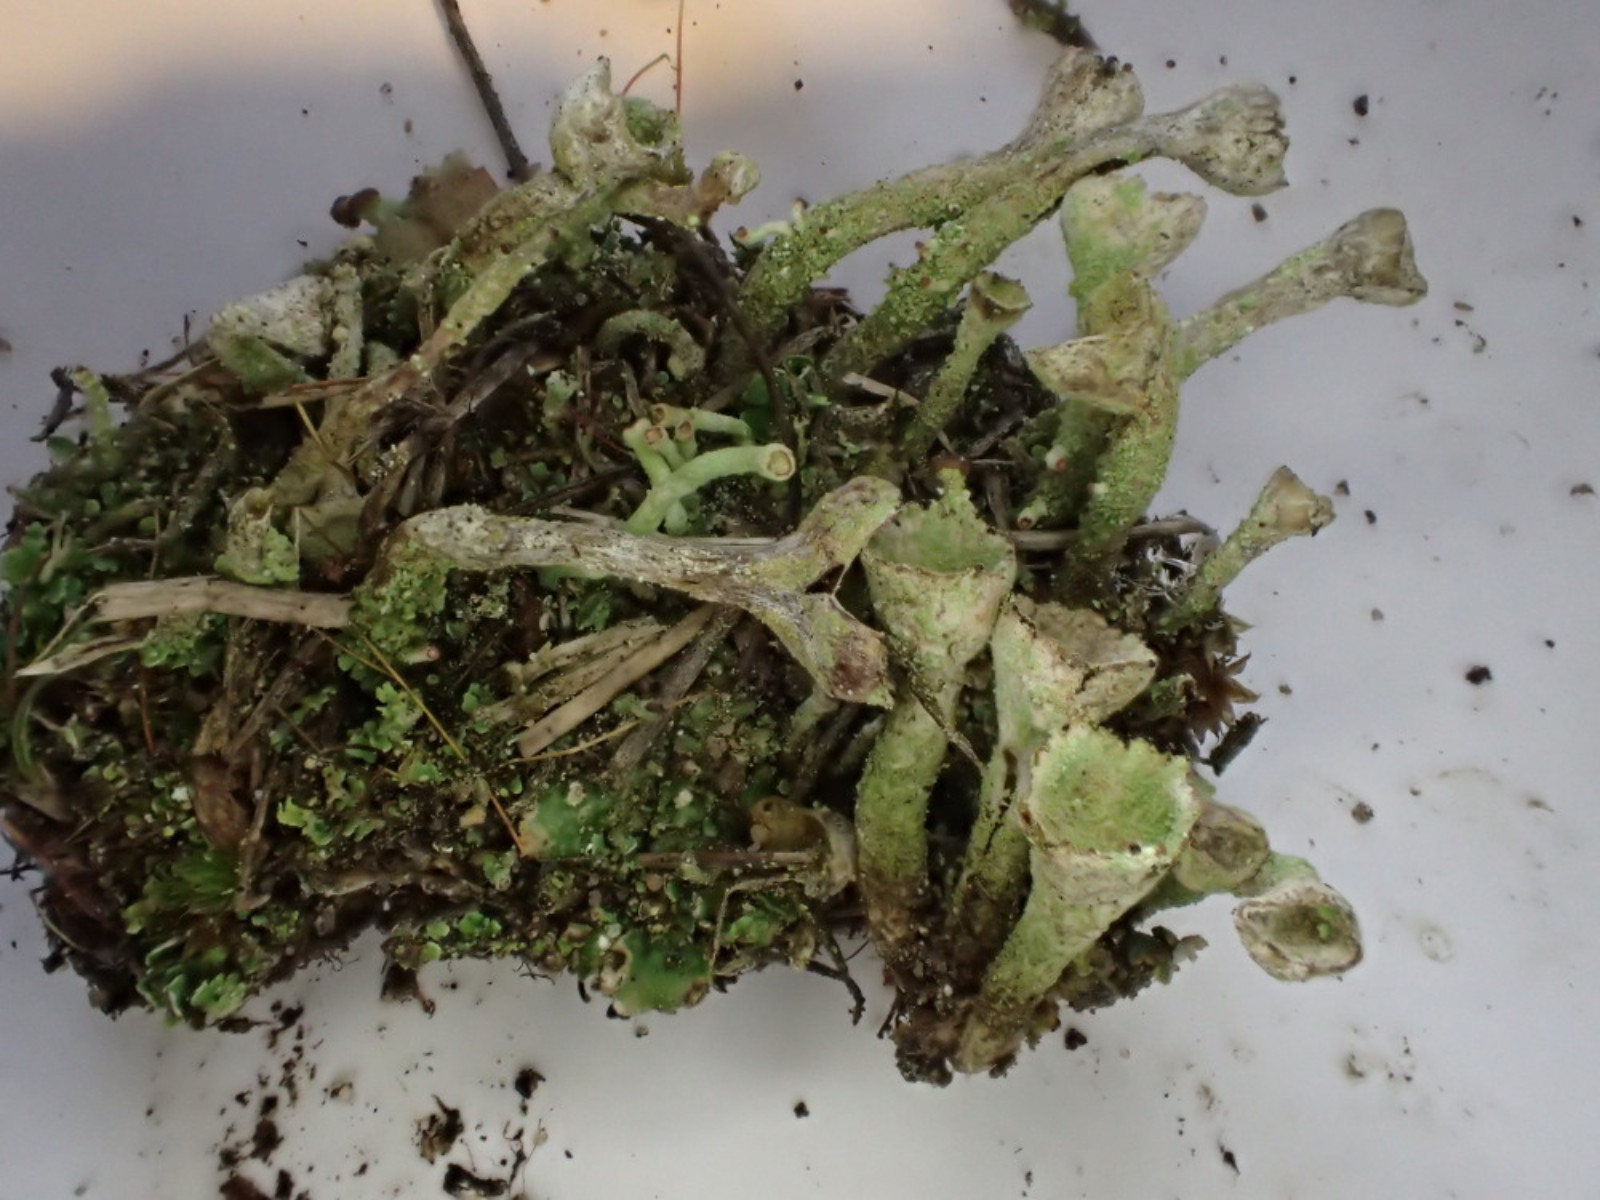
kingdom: Fungi
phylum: Ascomycota
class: Lecanoromycetes
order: Lecanorales
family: Cladoniaceae
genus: Cladonia
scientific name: Cladonia
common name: brungrøn bægerlav
